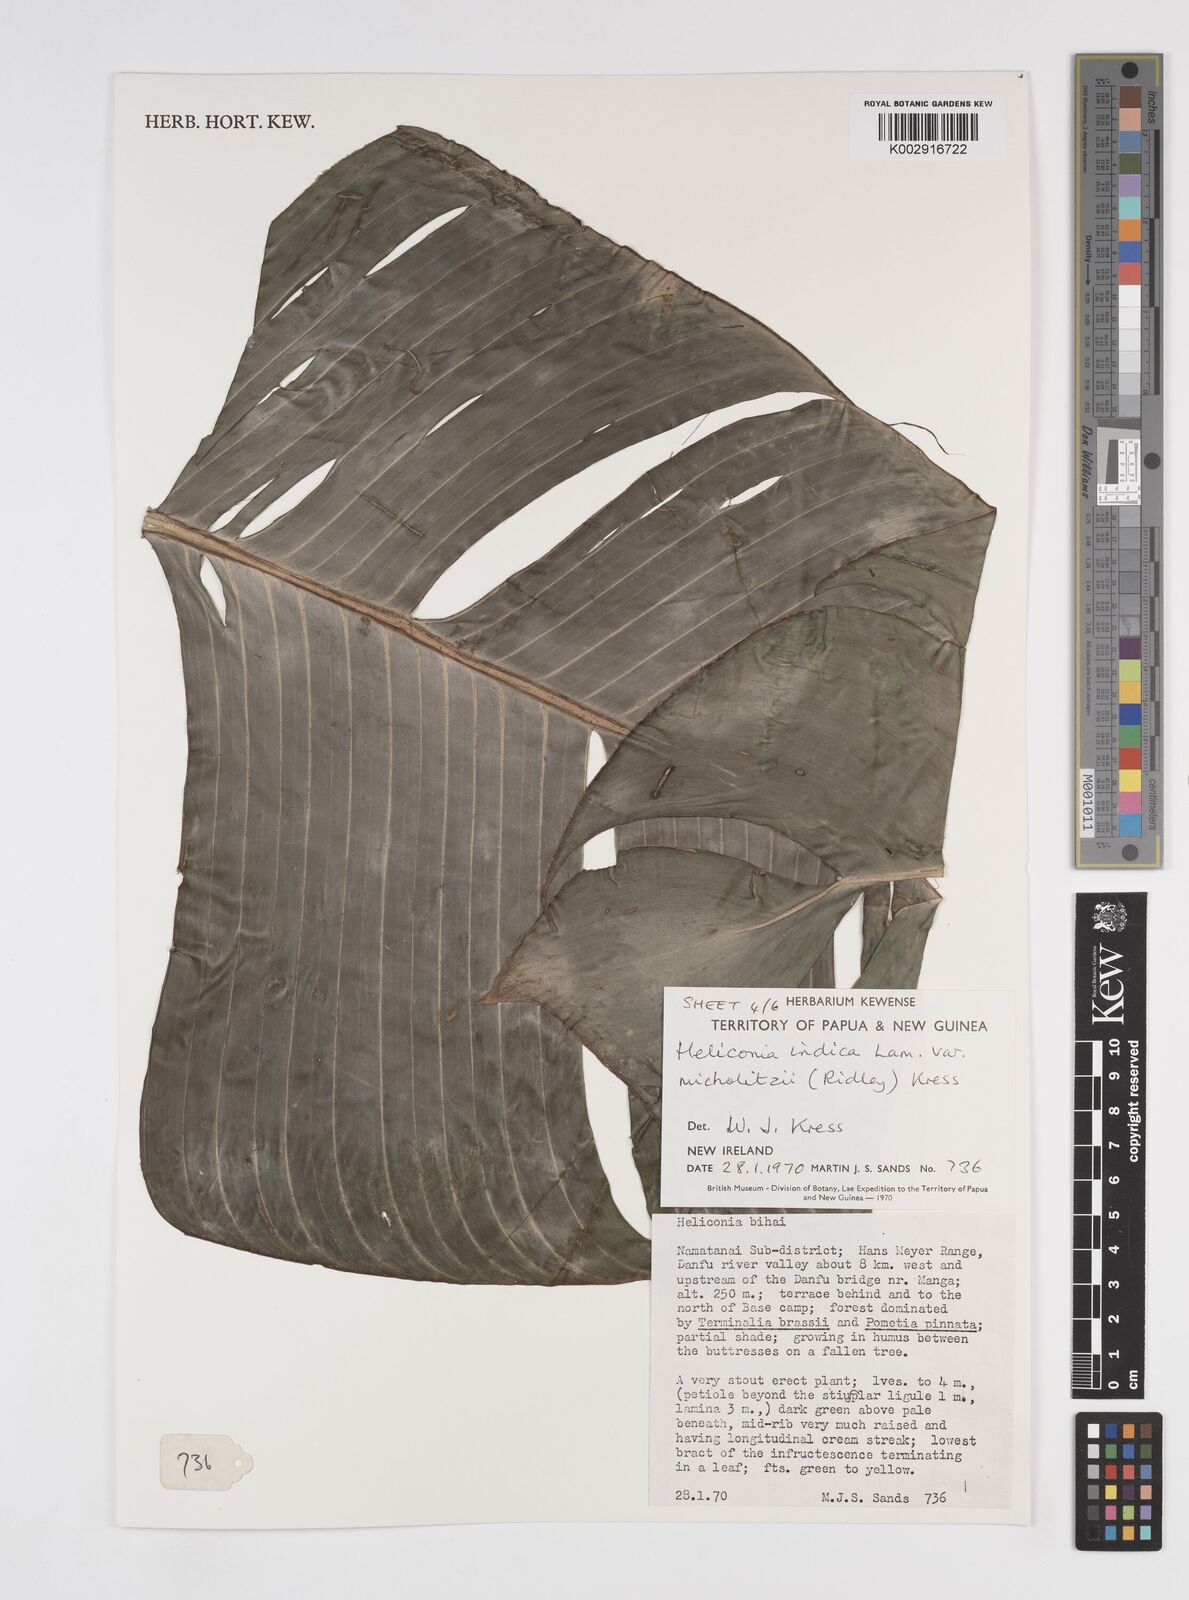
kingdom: Plantae
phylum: Tracheophyta
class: Liliopsida
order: Zingiberales
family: Heliconiaceae
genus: Heliconia
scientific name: Heliconia indica
